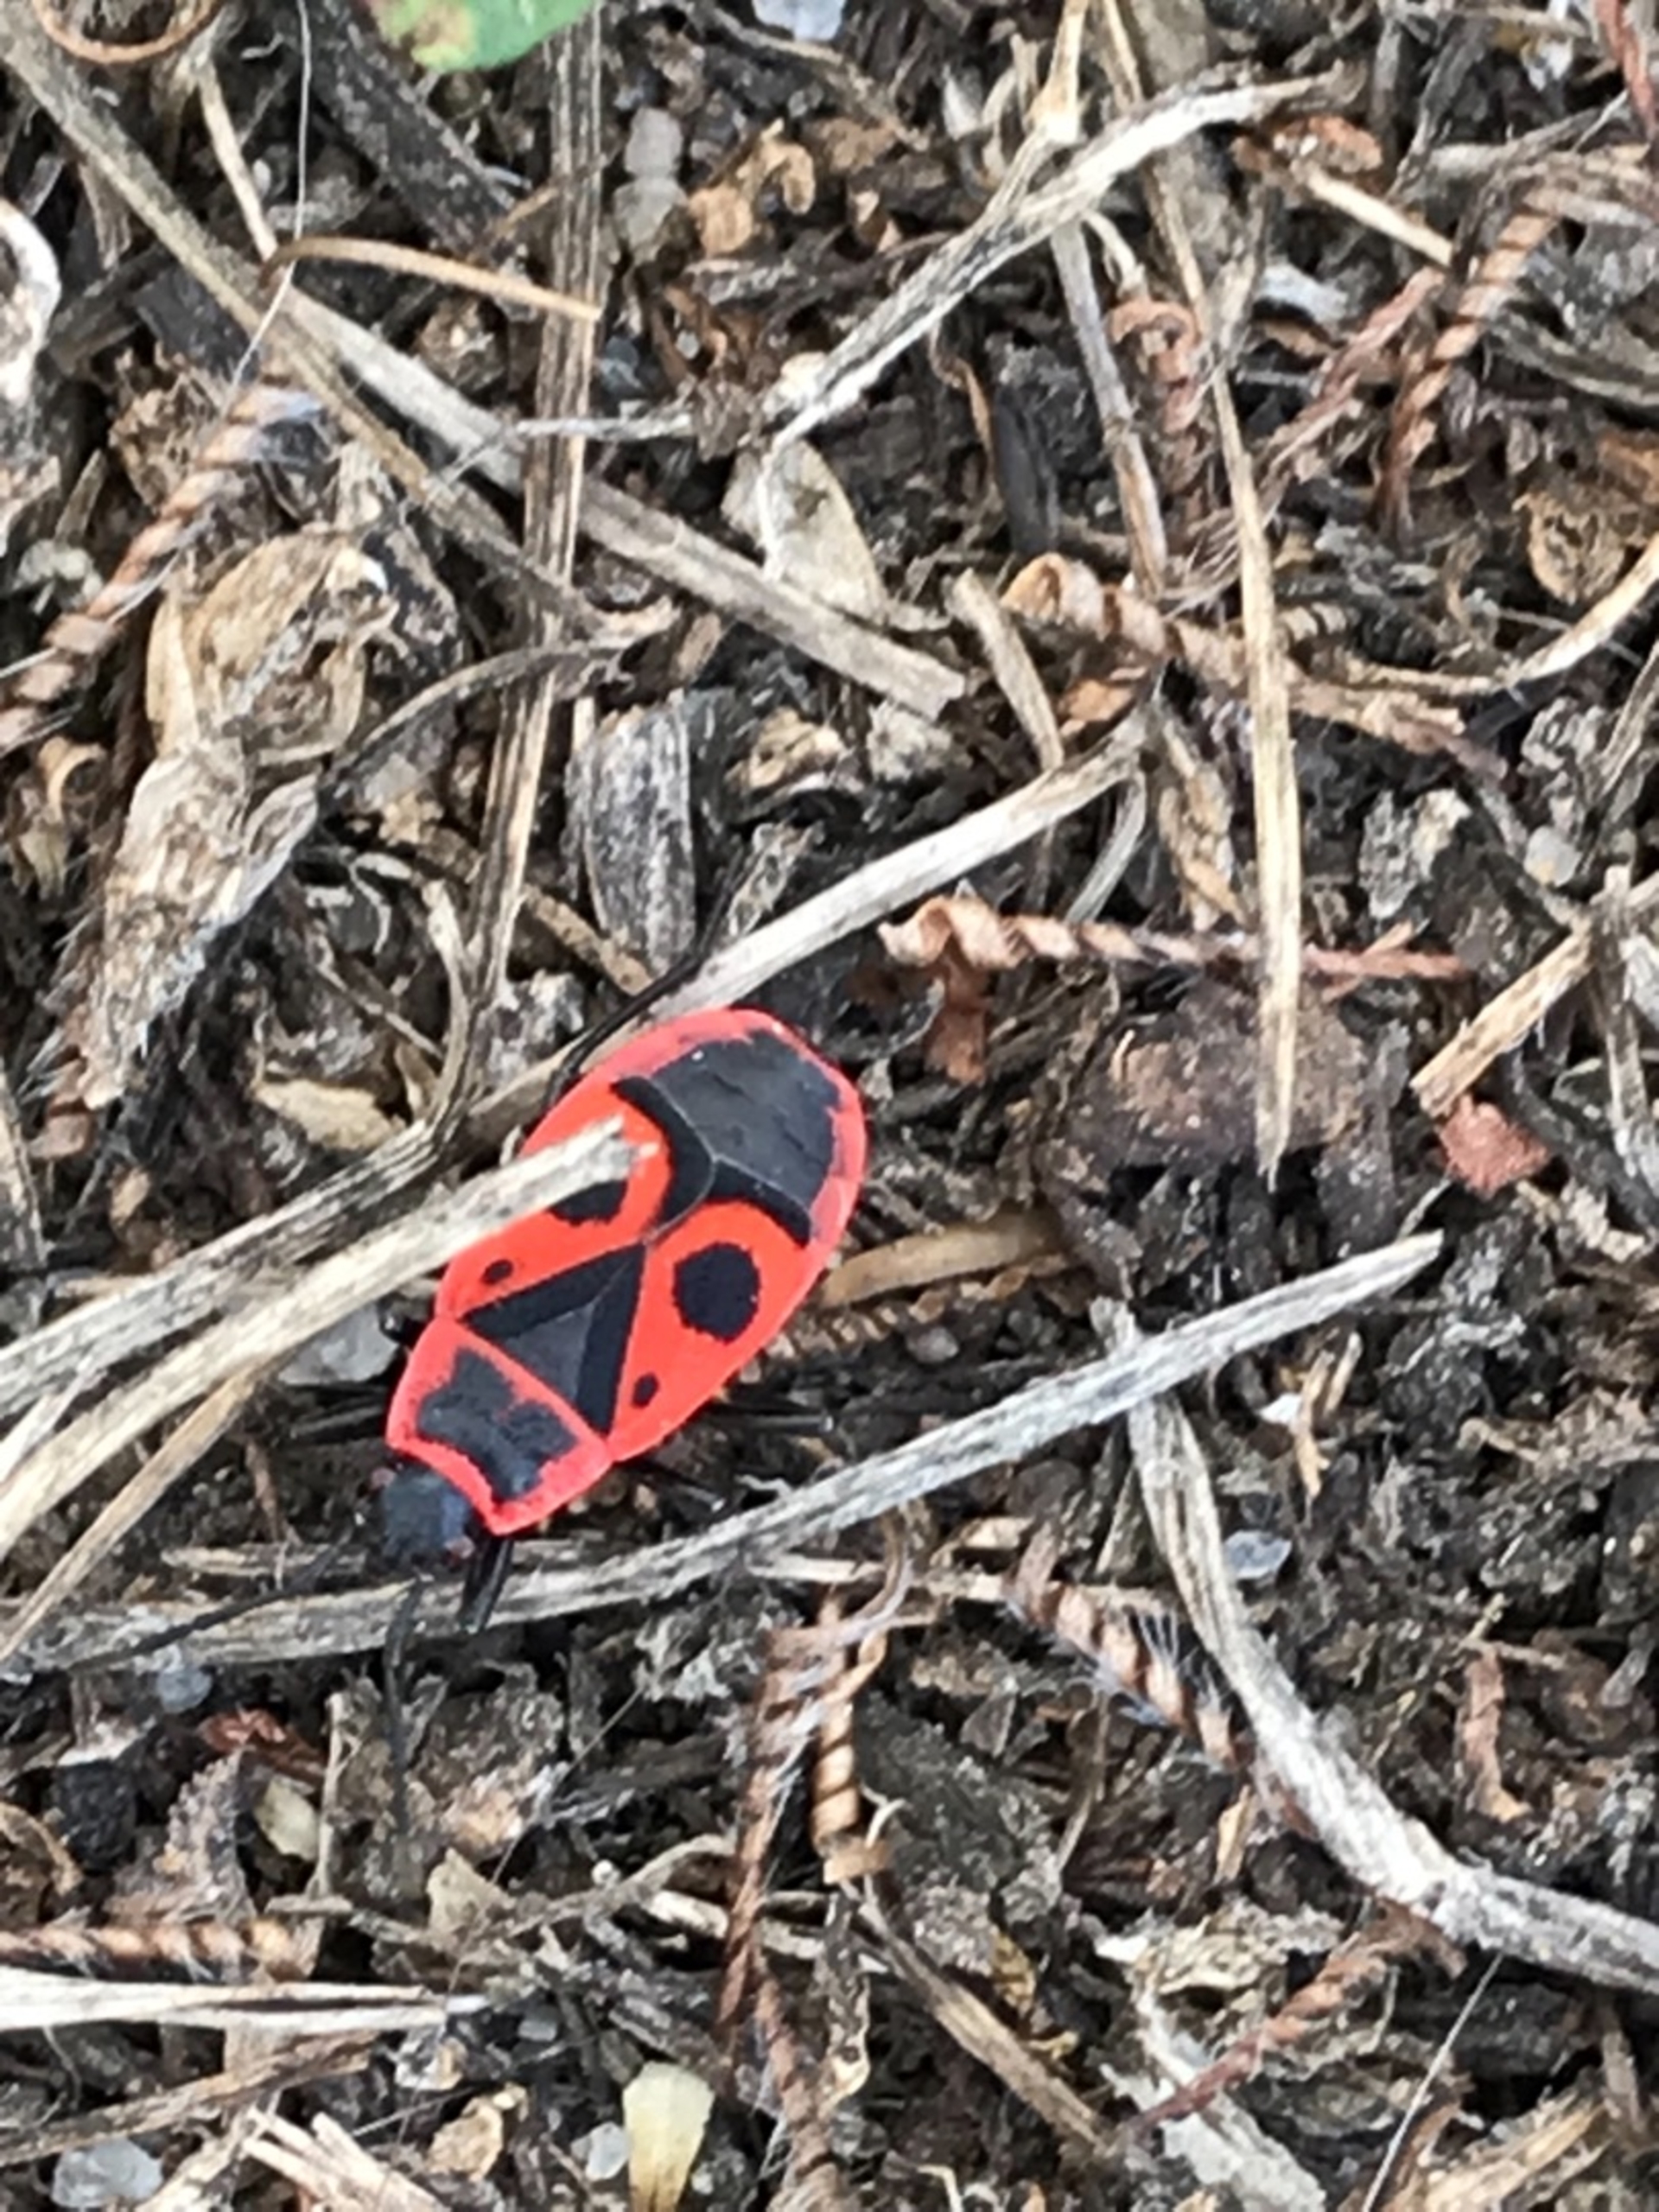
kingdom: Animalia
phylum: Arthropoda
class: Insecta
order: Hemiptera
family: Pyrrhocoridae
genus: Pyrrhocoris
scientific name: Pyrrhocoris apterus
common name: Ildtæge
